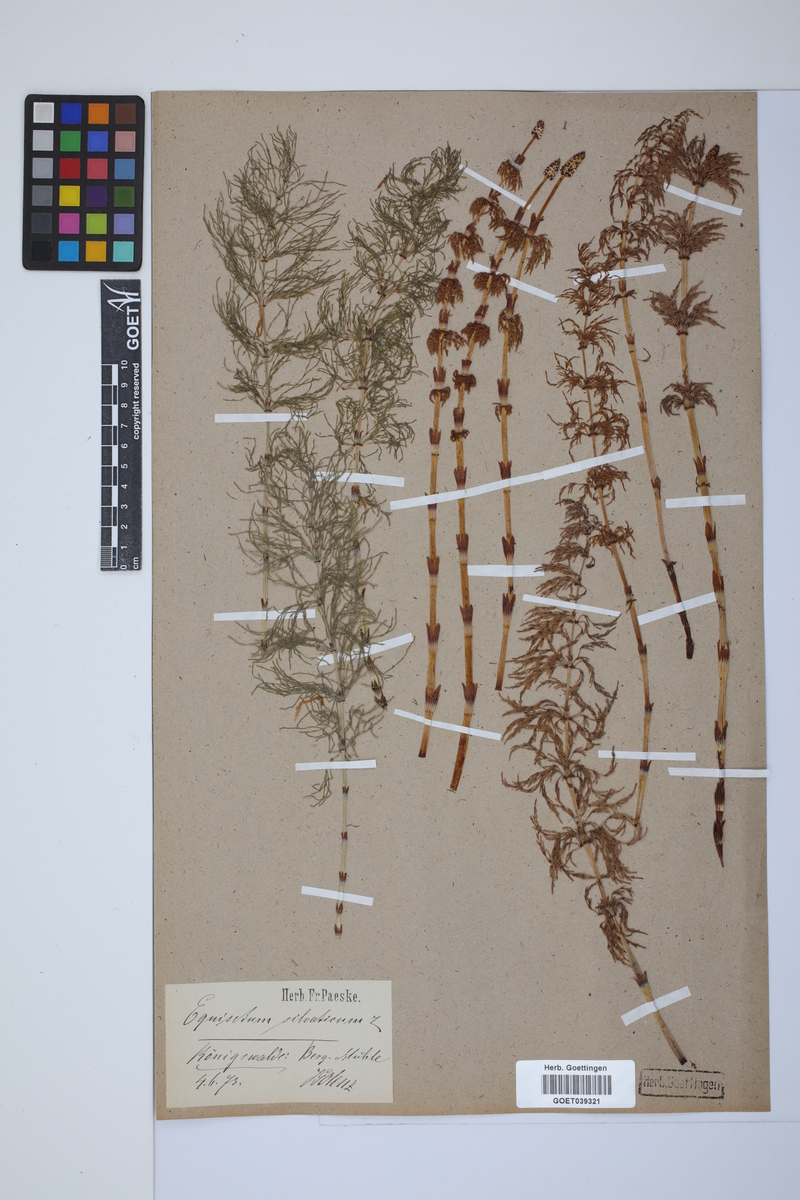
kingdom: Plantae
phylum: Tracheophyta
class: Polypodiopsida
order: Equisetales
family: Equisetaceae
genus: Equisetum
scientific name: Equisetum sylvaticum
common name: Wood horsetail
